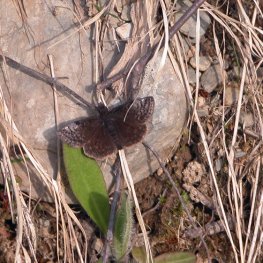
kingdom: Animalia
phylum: Arthropoda
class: Insecta
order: Lepidoptera
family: Hesperiidae
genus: Erynnis
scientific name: Erynnis icelus
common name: Dreamy Duskywing
